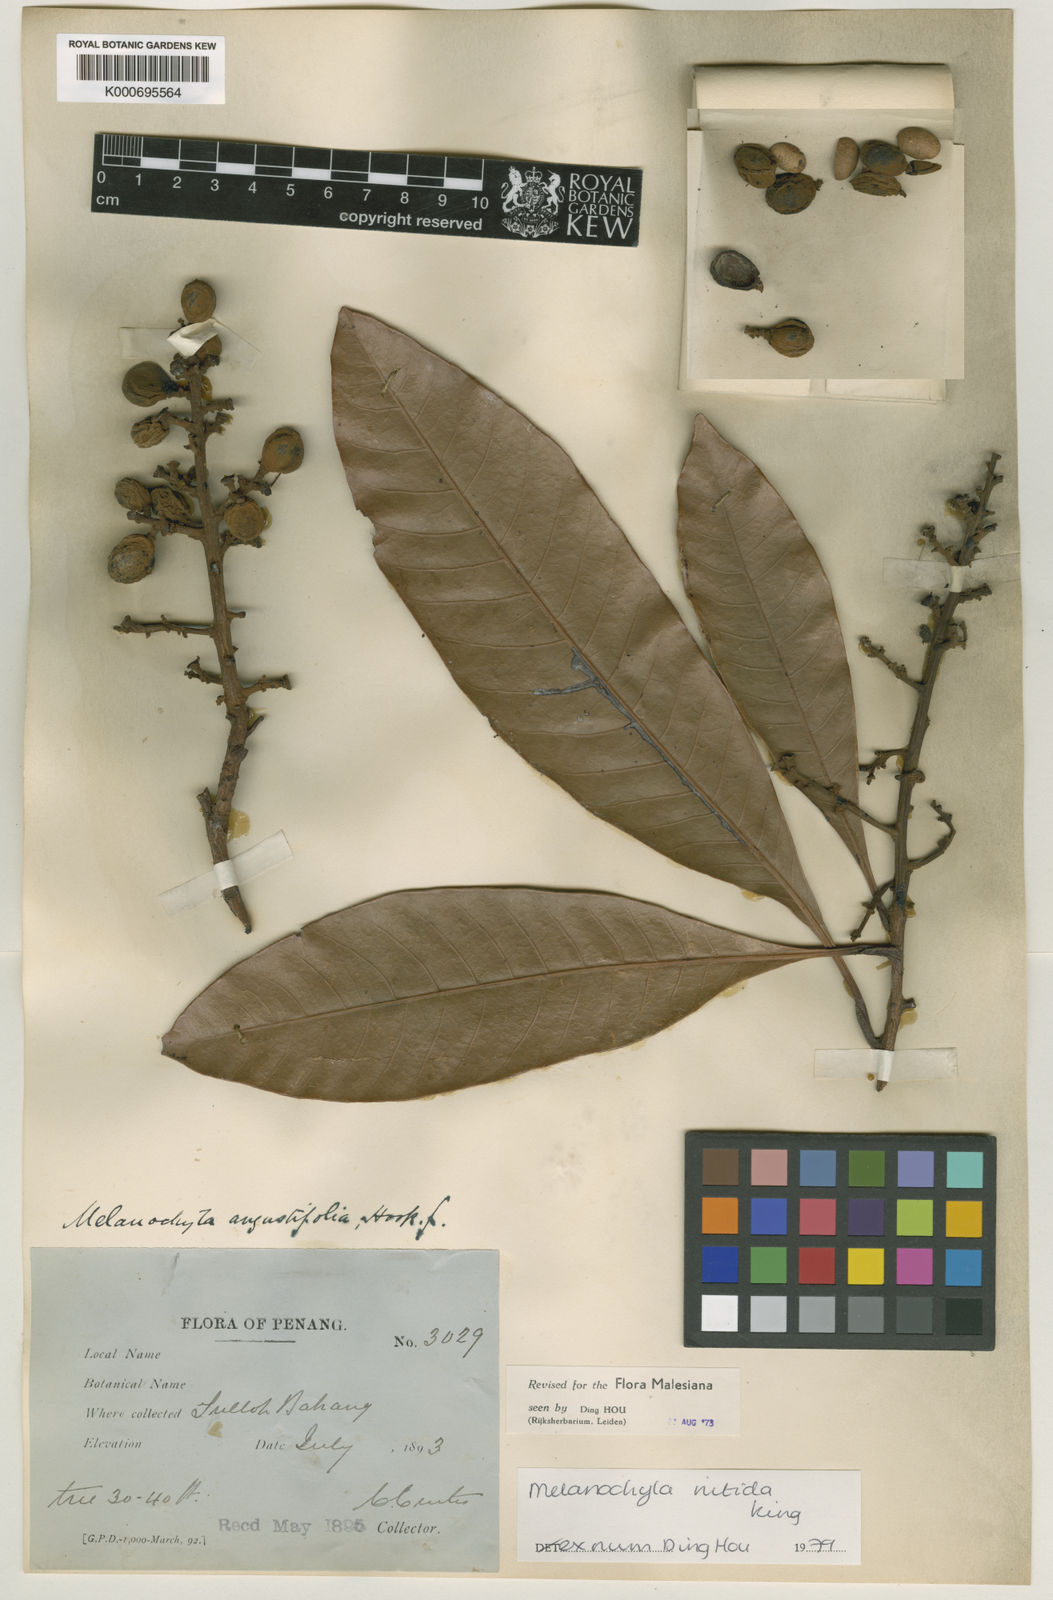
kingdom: Plantae
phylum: Tracheophyta
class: Magnoliopsida
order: Sapindales
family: Anacardiaceae
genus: Melanochyla
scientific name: Melanochyla nitida
